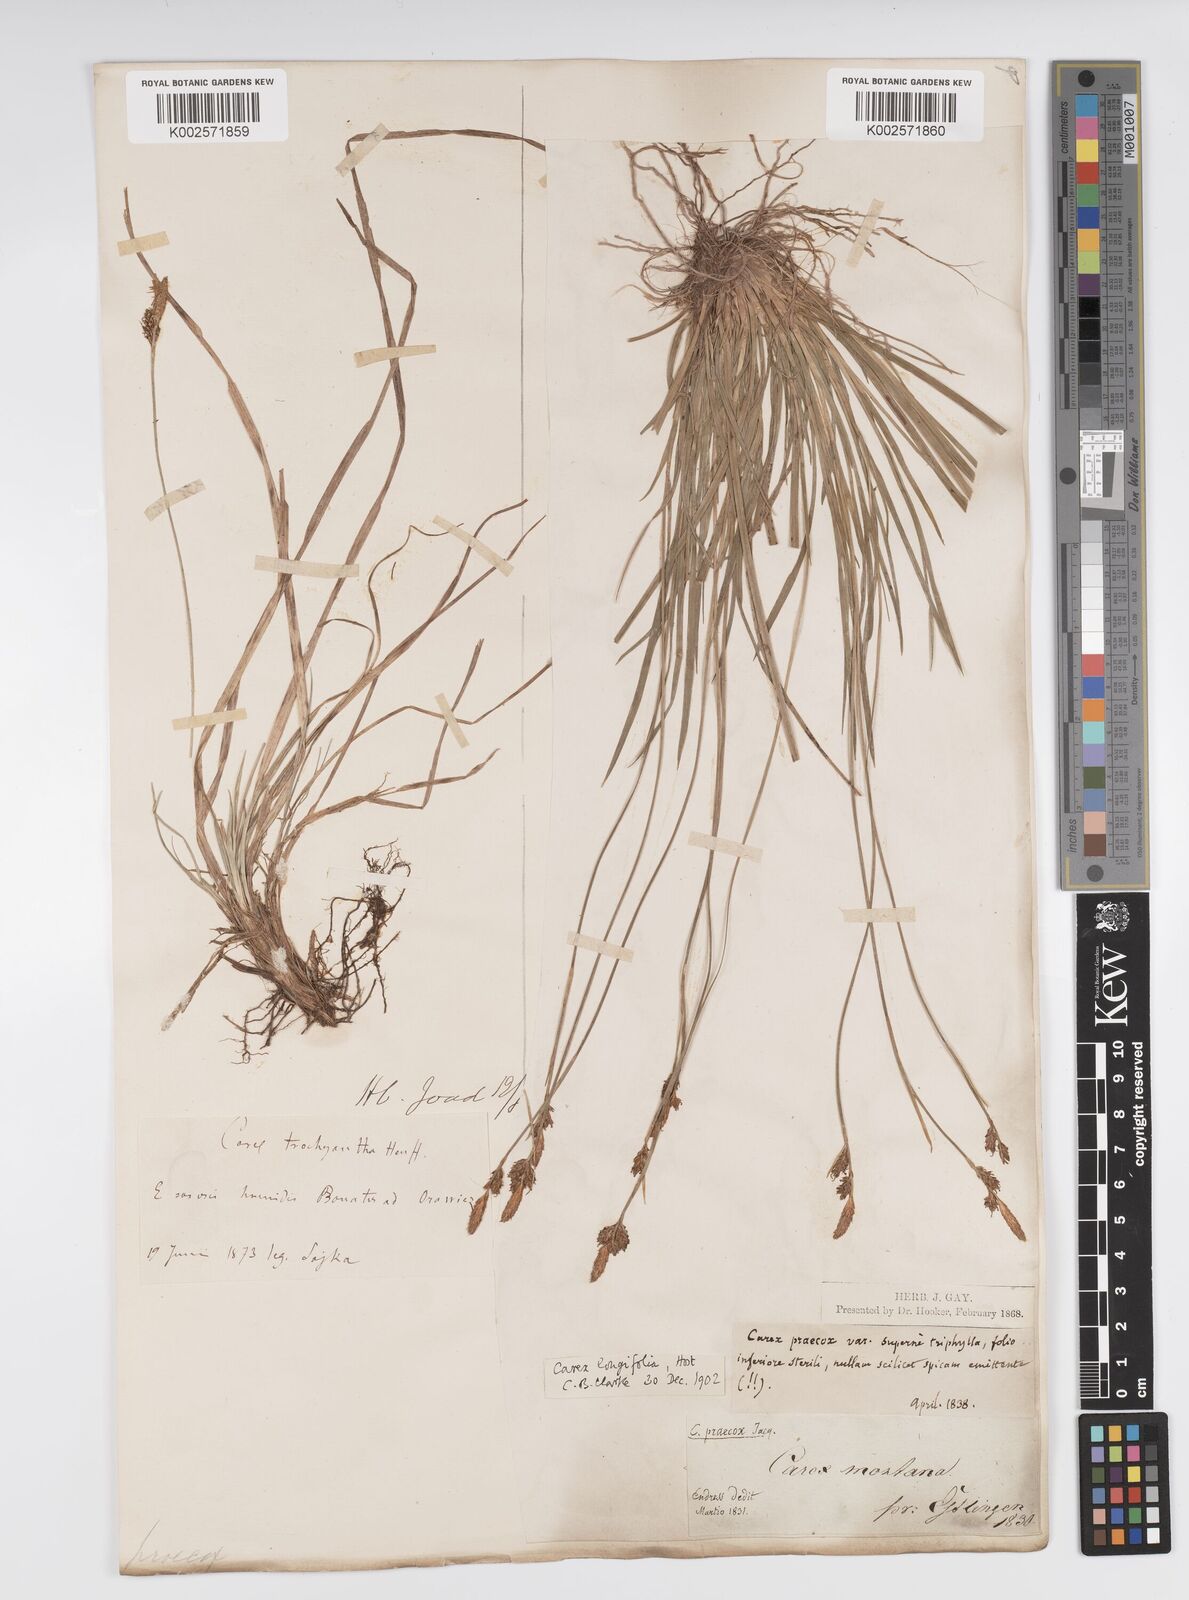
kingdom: Plantae
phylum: Tracheophyta
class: Liliopsida
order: Poales
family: Cyperaceae
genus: Carex
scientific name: Carex umbrosa
